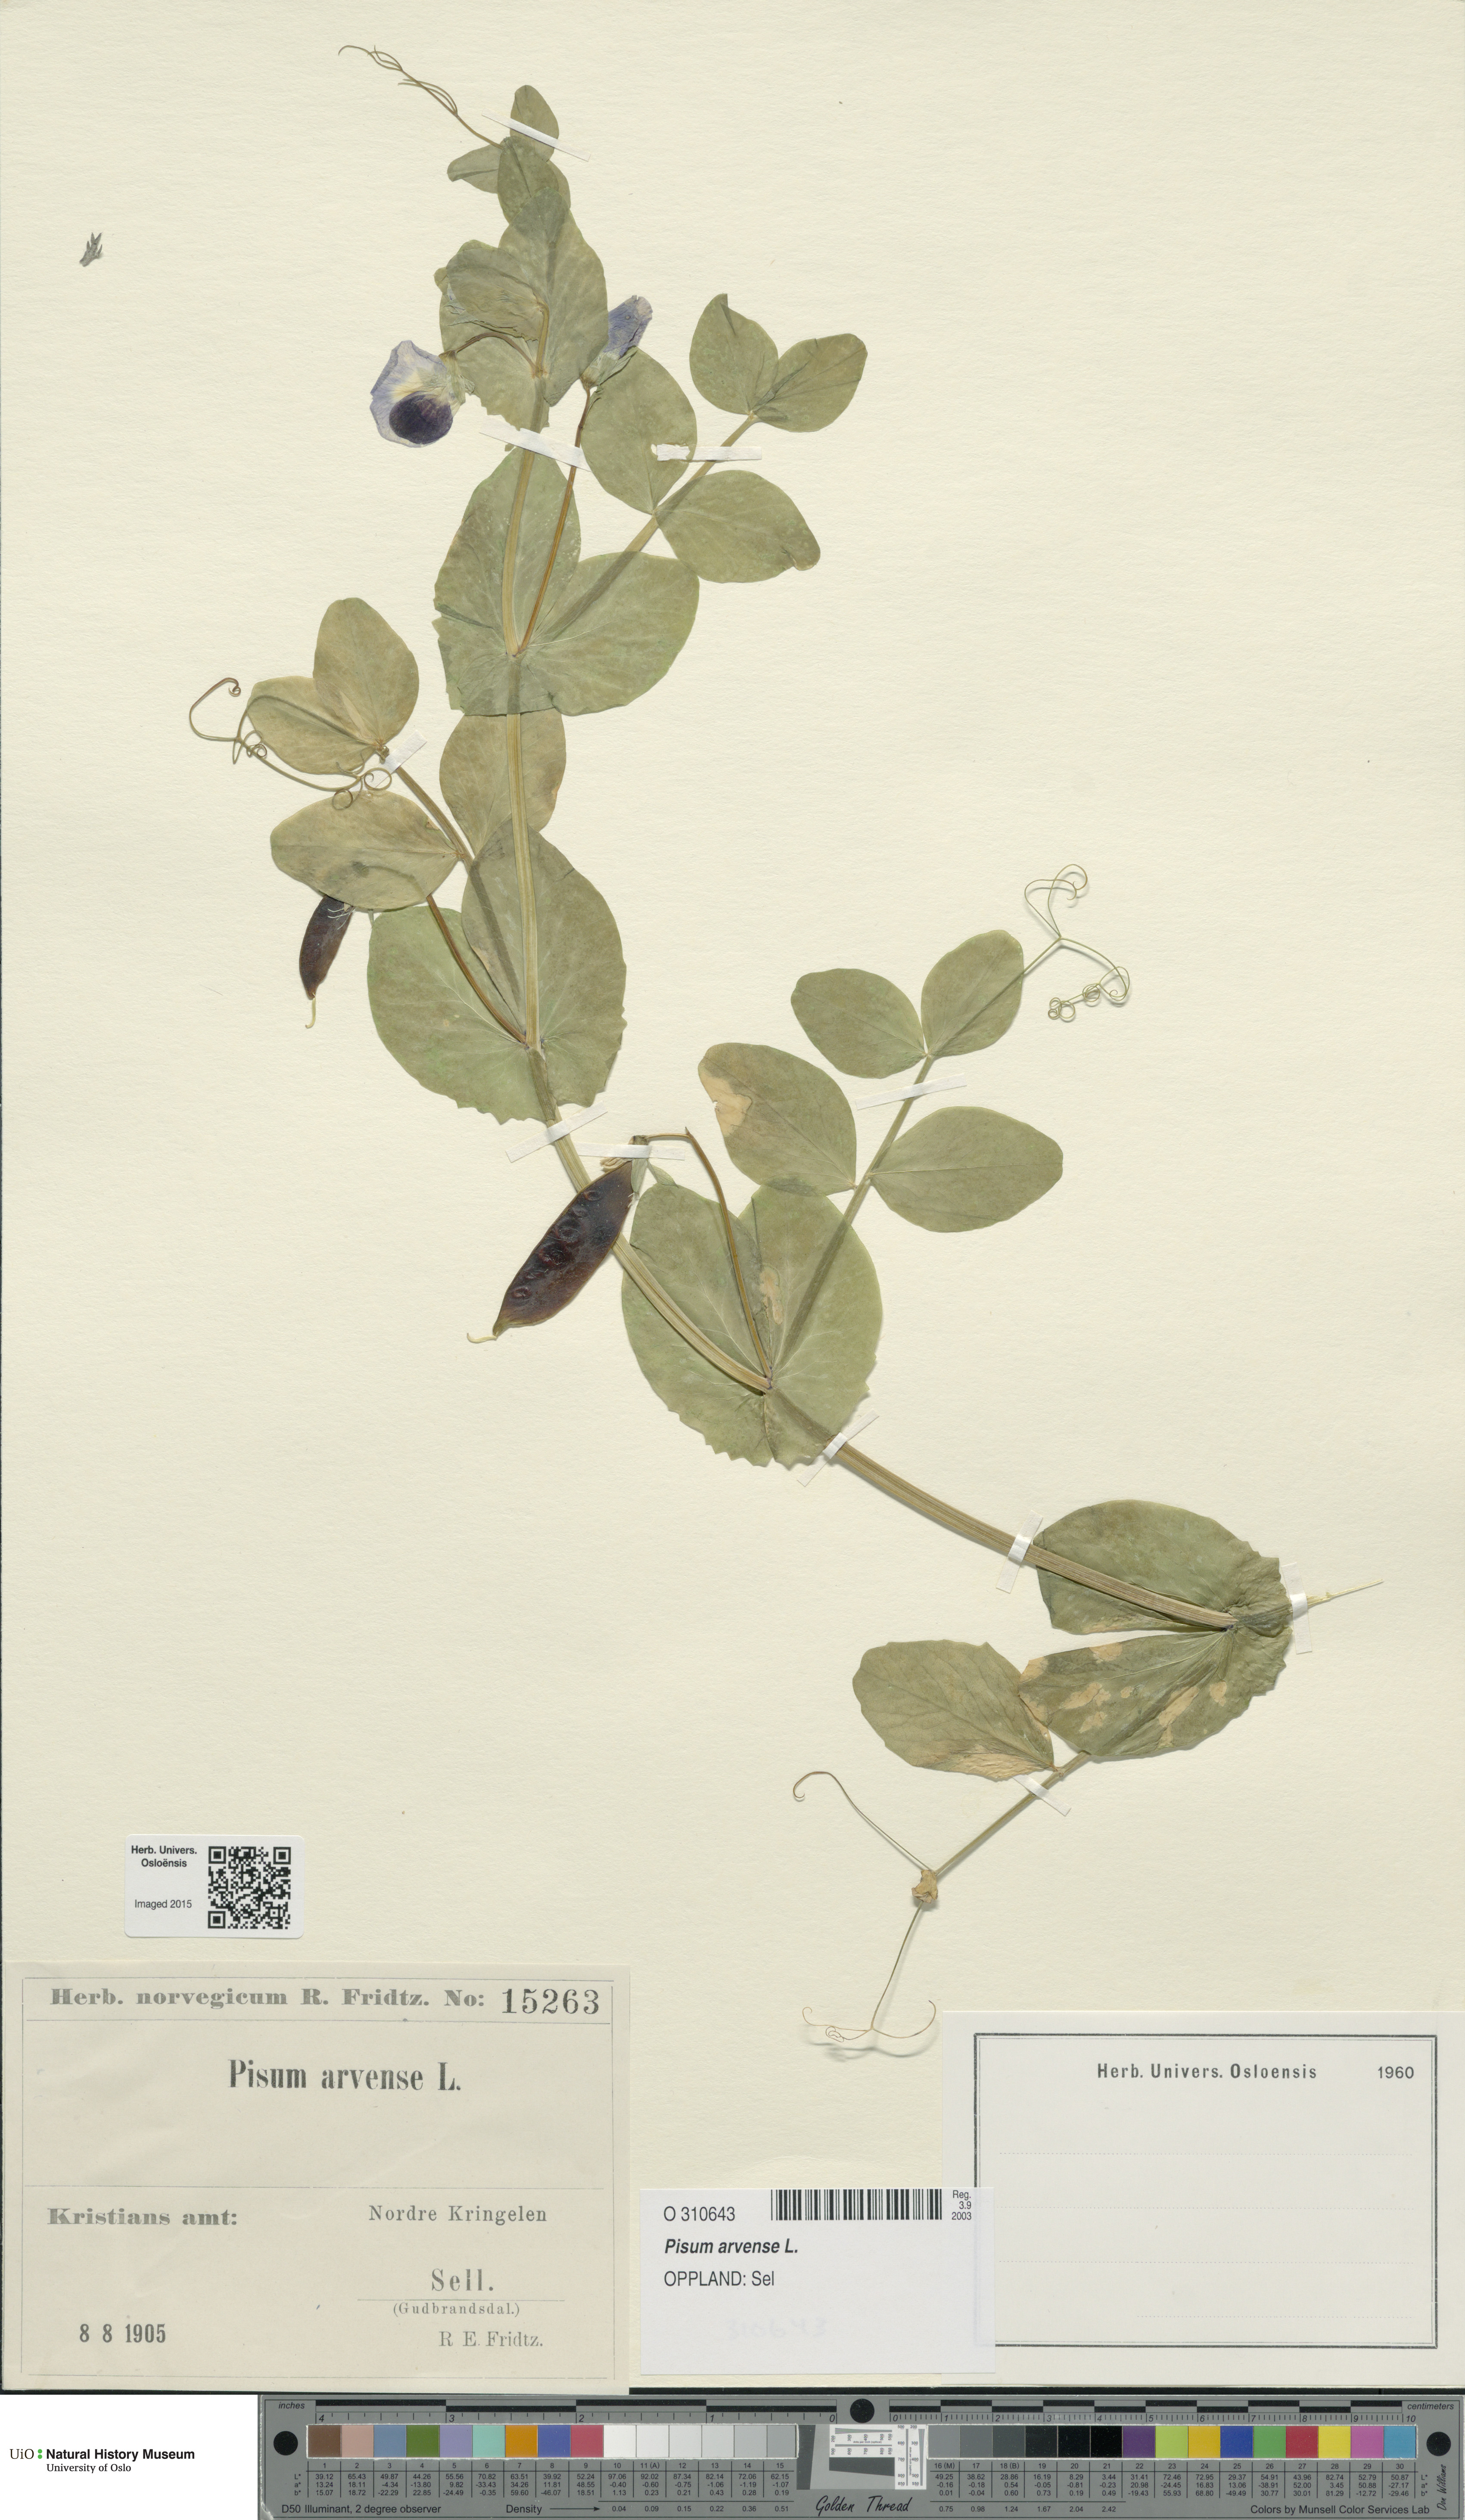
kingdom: Plantae
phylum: Tracheophyta
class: Magnoliopsida
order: Fabales
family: Fabaceae
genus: Lathyrus
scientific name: Lathyrus oleraceus
